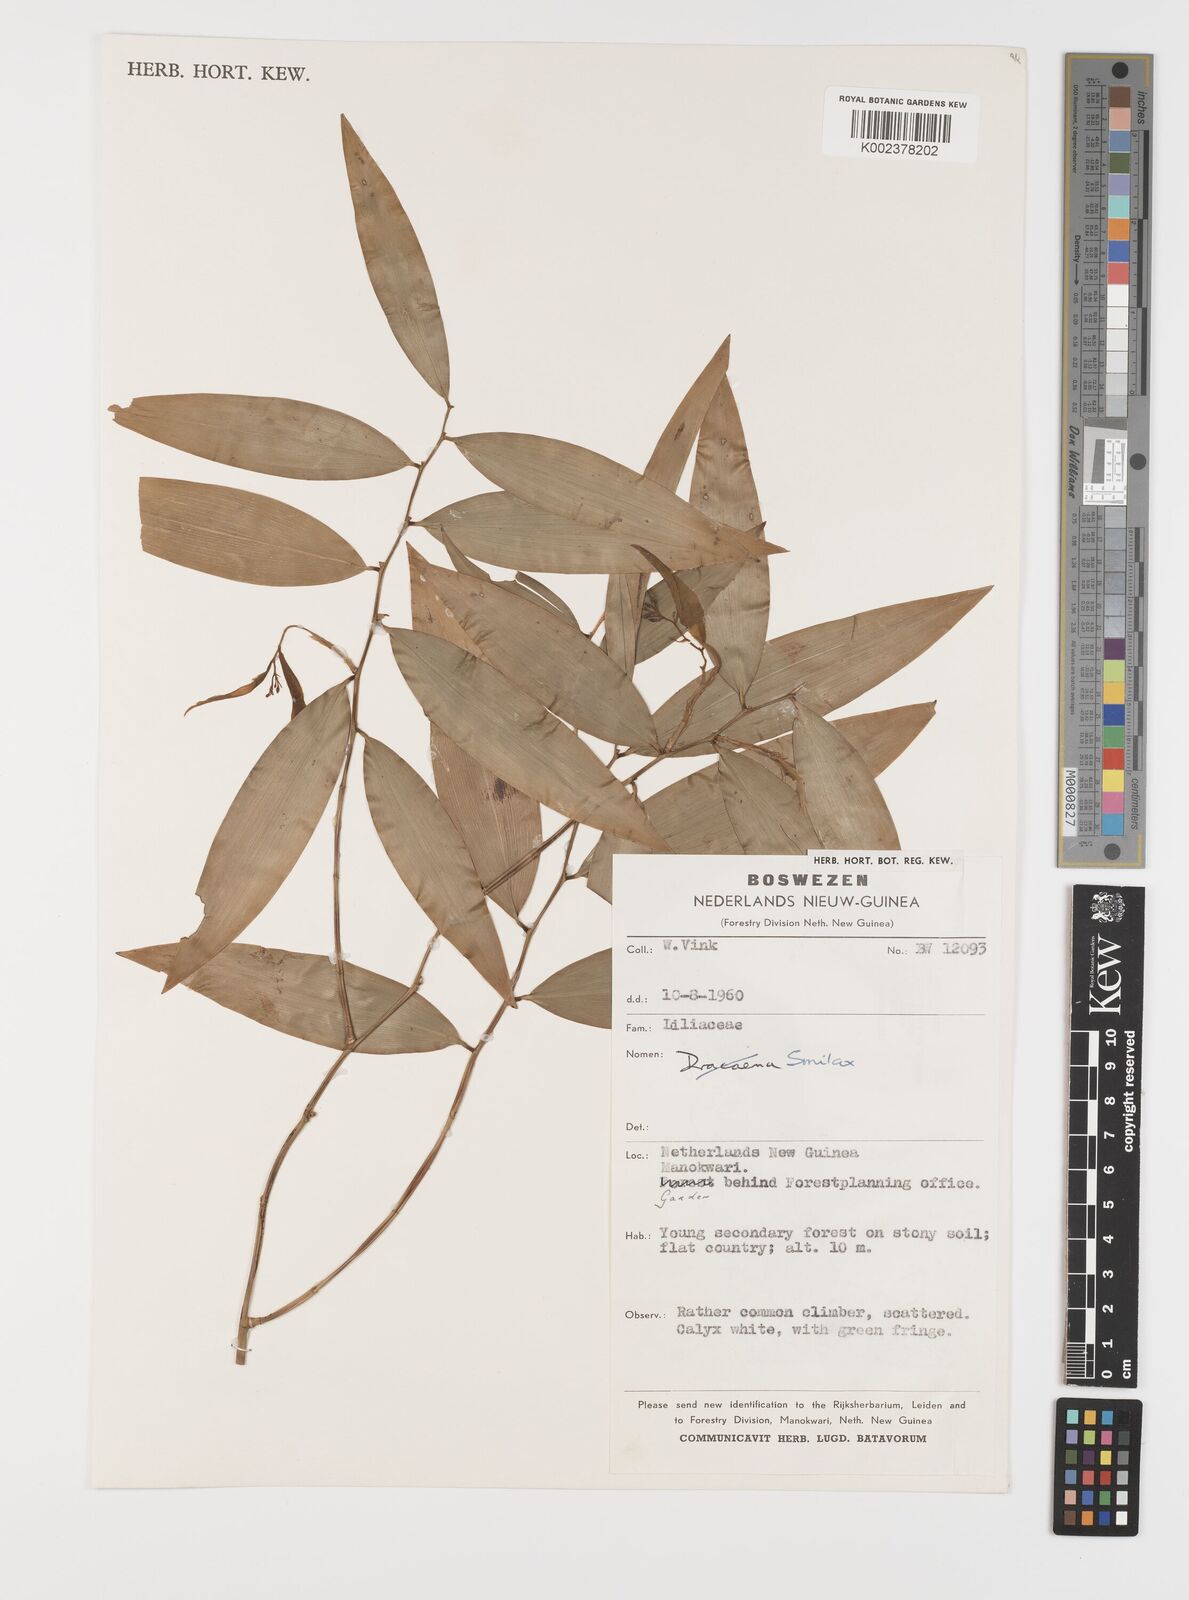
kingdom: Plantae
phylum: Tracheophyta
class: Liliopsida
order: Liliales
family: Smilacaceae
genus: Smilax
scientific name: Smilax
